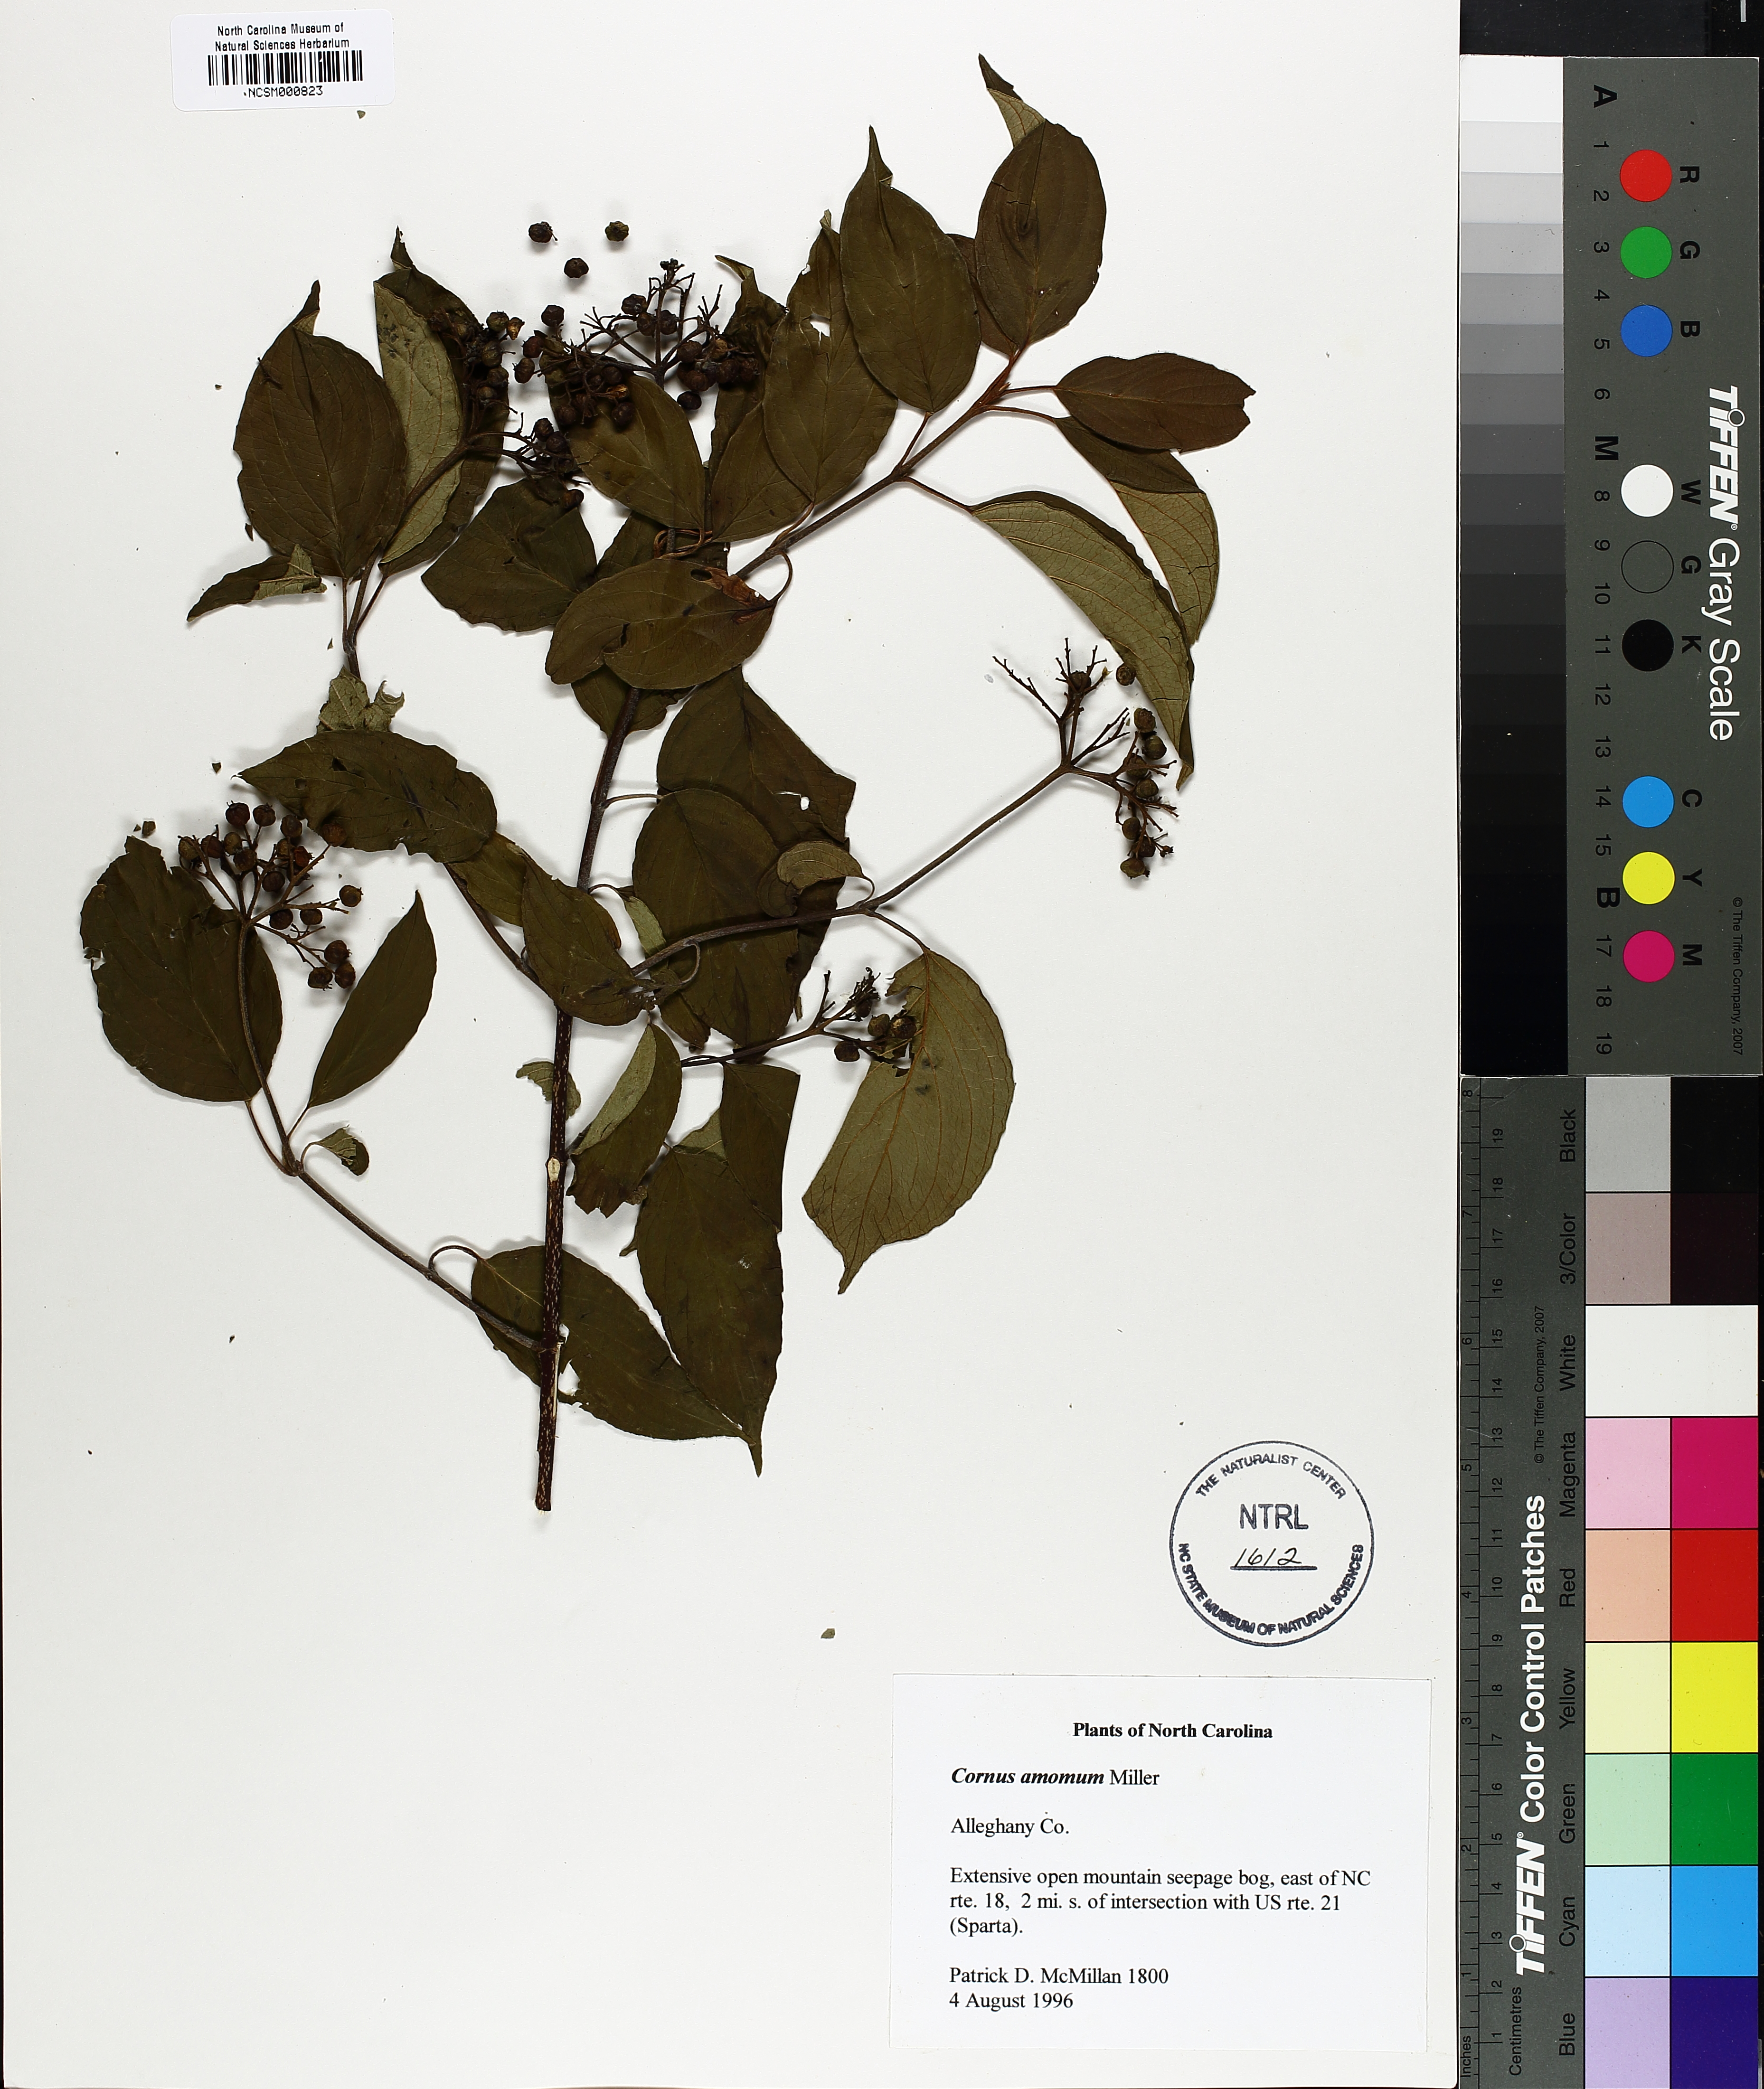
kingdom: Plantae
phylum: Tracheophyta
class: Magnoliopsida
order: Cornales
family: Cornaceae
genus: Cornus
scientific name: Cornus amomum
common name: Silky dogwood
